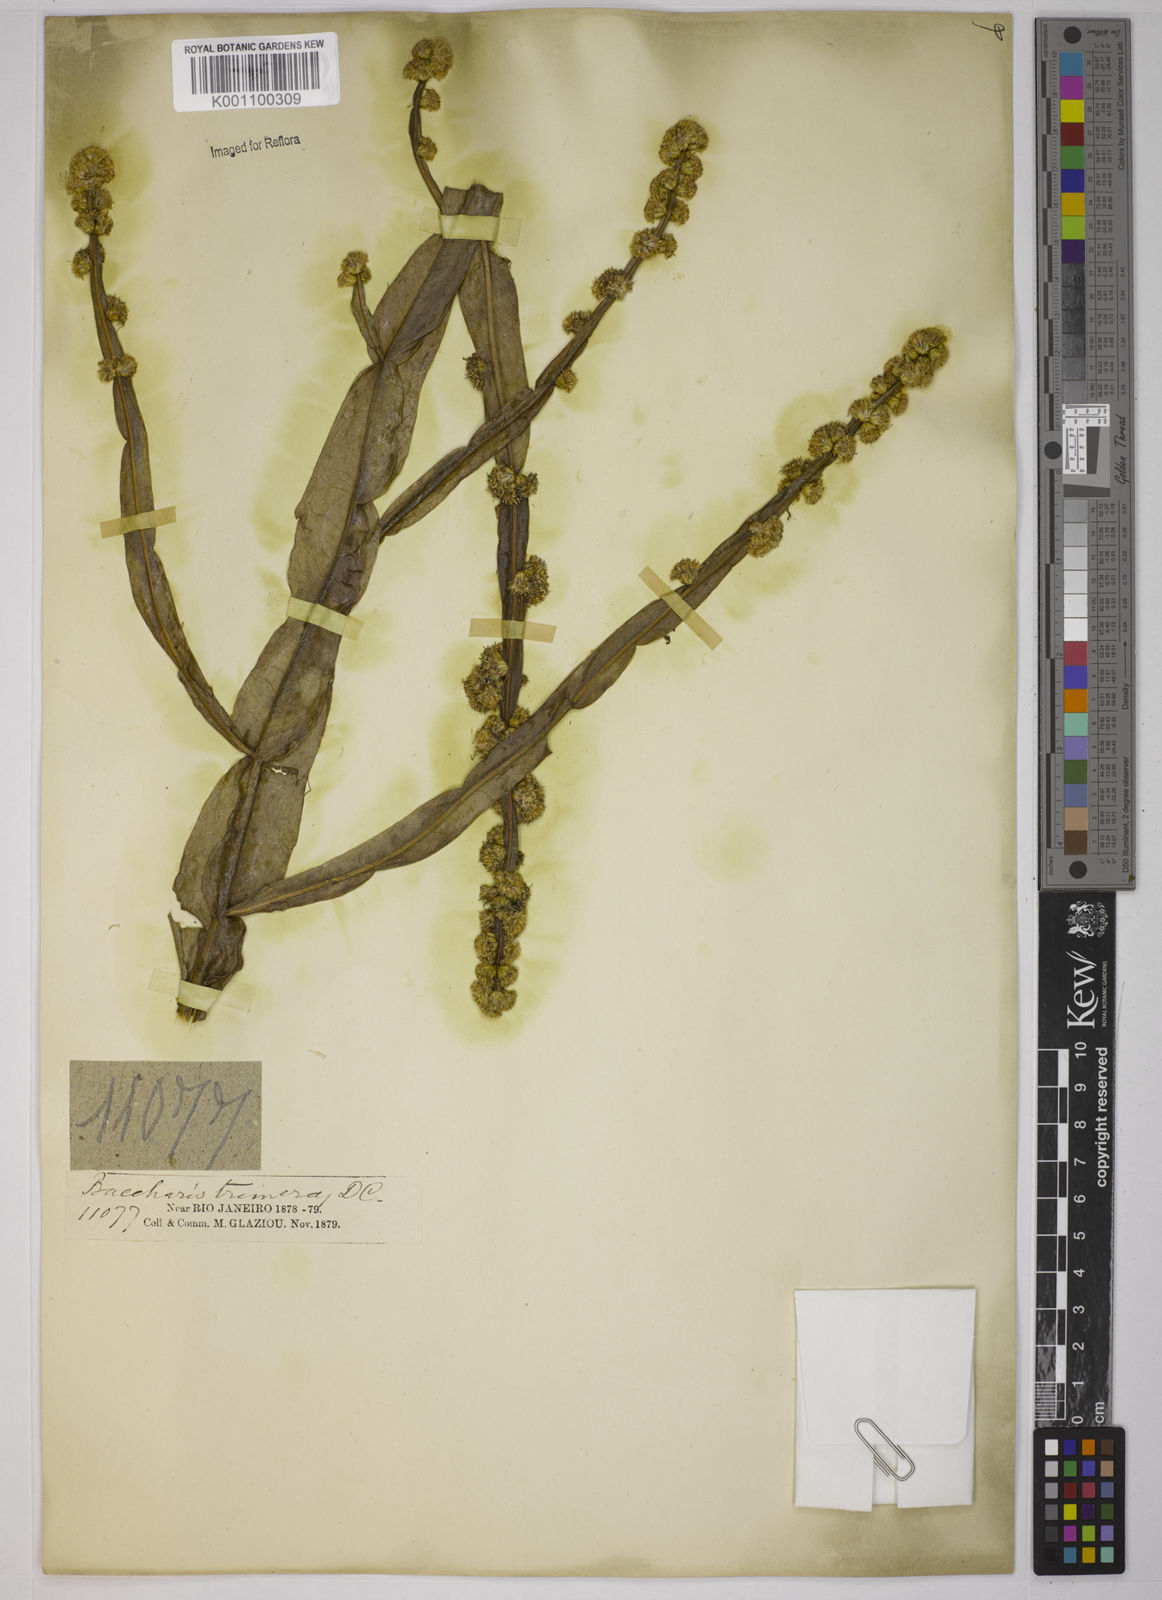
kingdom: Plantae
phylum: Tracheophyta
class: Magnoliopsida
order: Asterales
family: Asteraceae
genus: Baccharis
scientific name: Baccharis trimera
